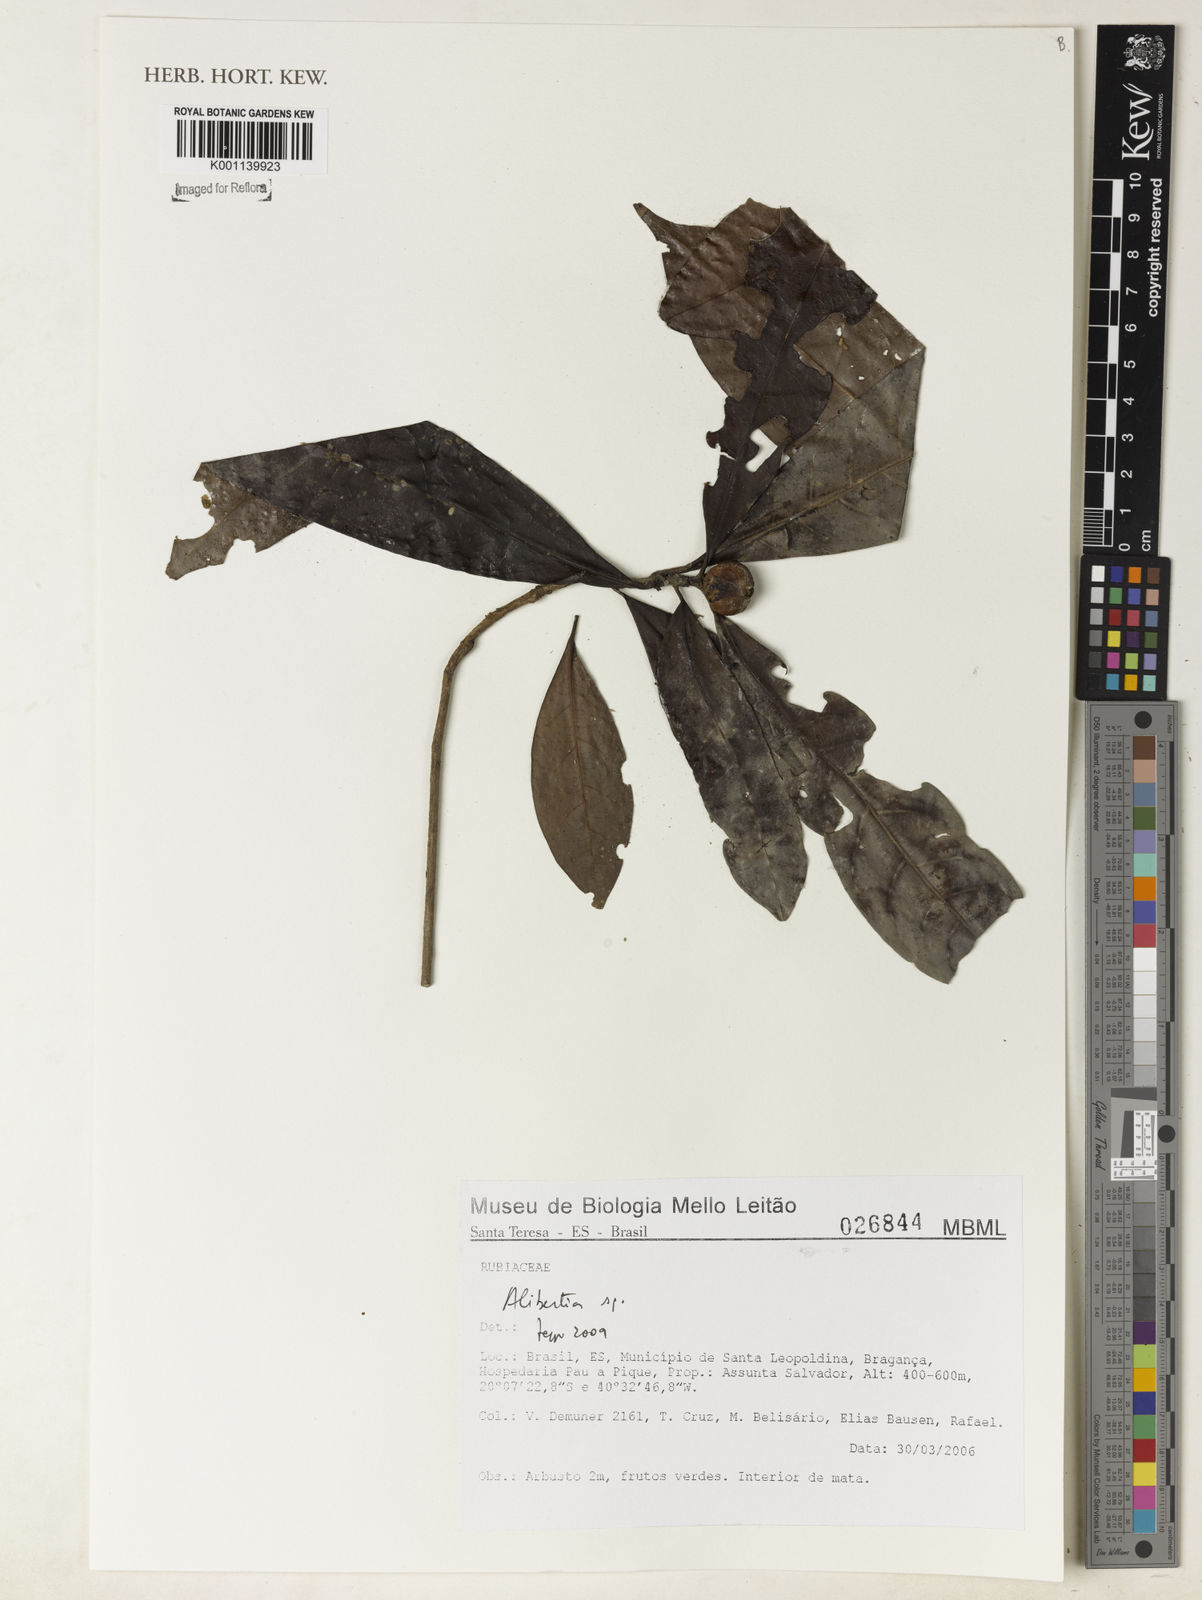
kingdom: Plantae
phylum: Tracheophyta
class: Magnoliopsida
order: Gentianales
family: Rubiaceae
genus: Alibertia
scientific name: Alibertia
